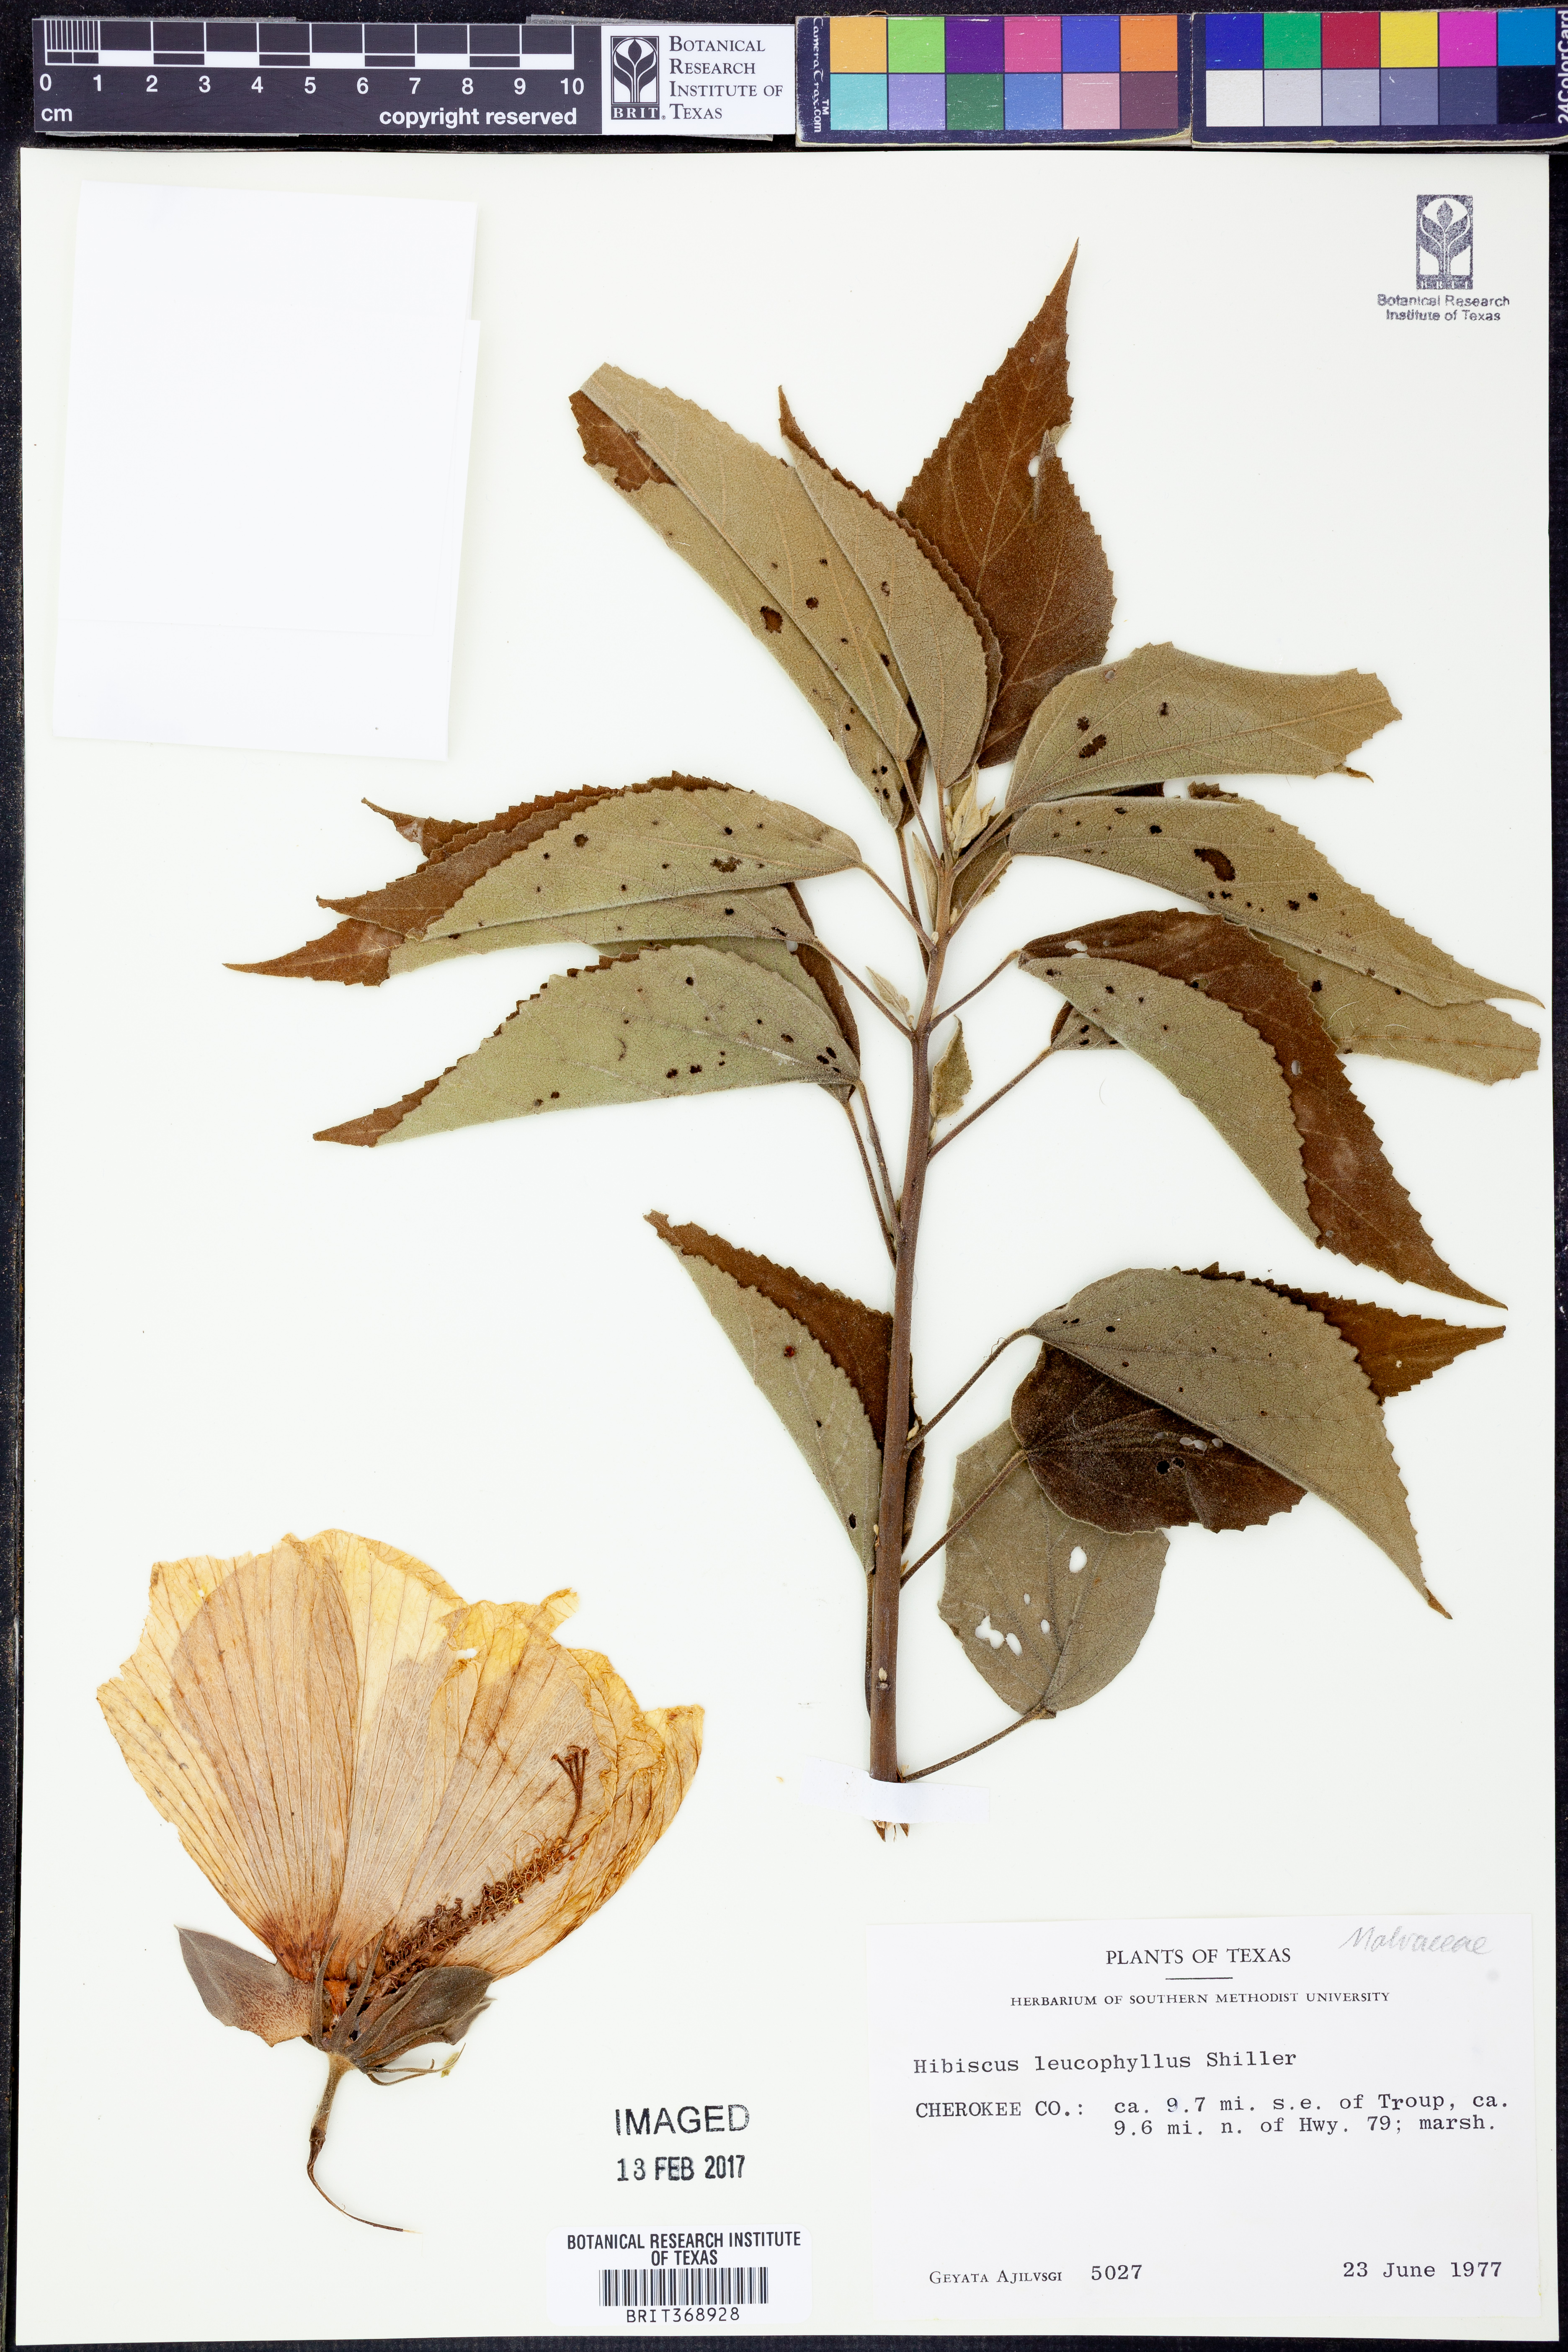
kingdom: Plantae
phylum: Tracheophyta
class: Magnoliopsida
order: Malvales
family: Malvaceae
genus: Hibiscus
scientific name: Hibiscus moscheutos
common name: Common rose-mallow
